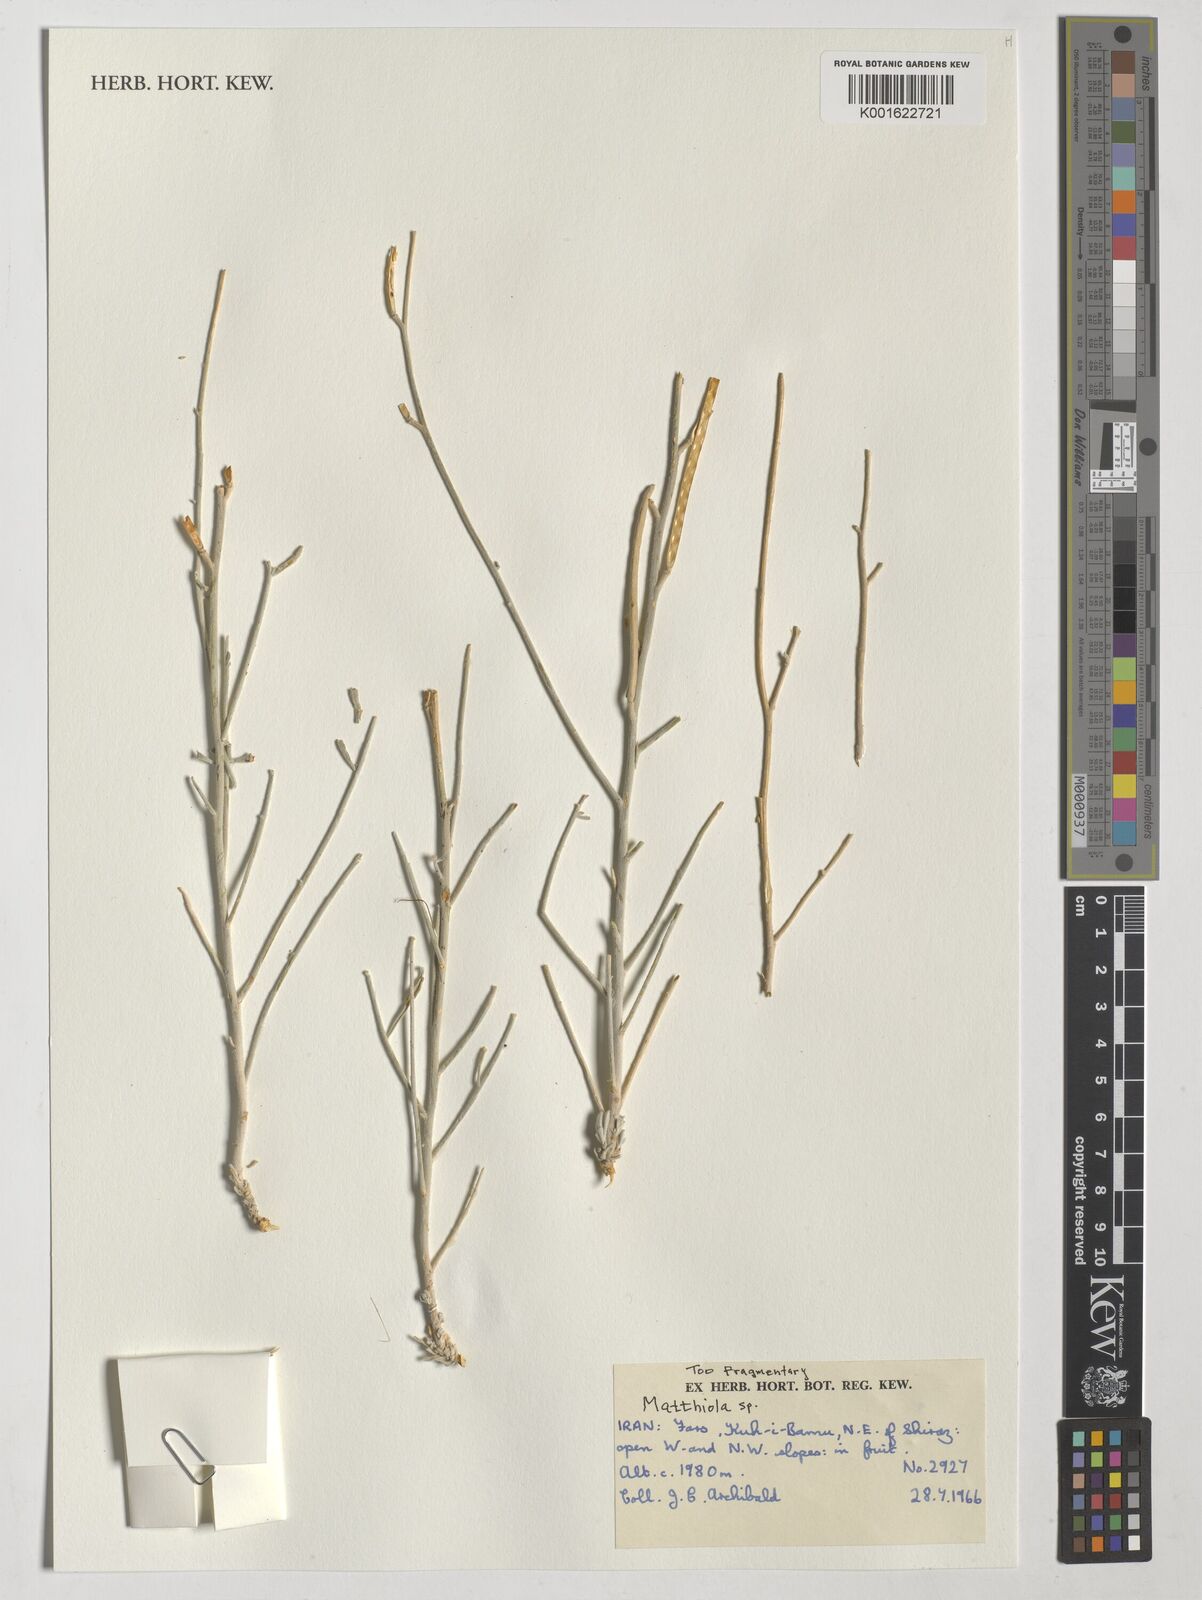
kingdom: Plantae
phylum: Tracheophyta
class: Magnoliopsida
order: Brassicales
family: Brassicaceae
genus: Matthiola
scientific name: Matthiola
